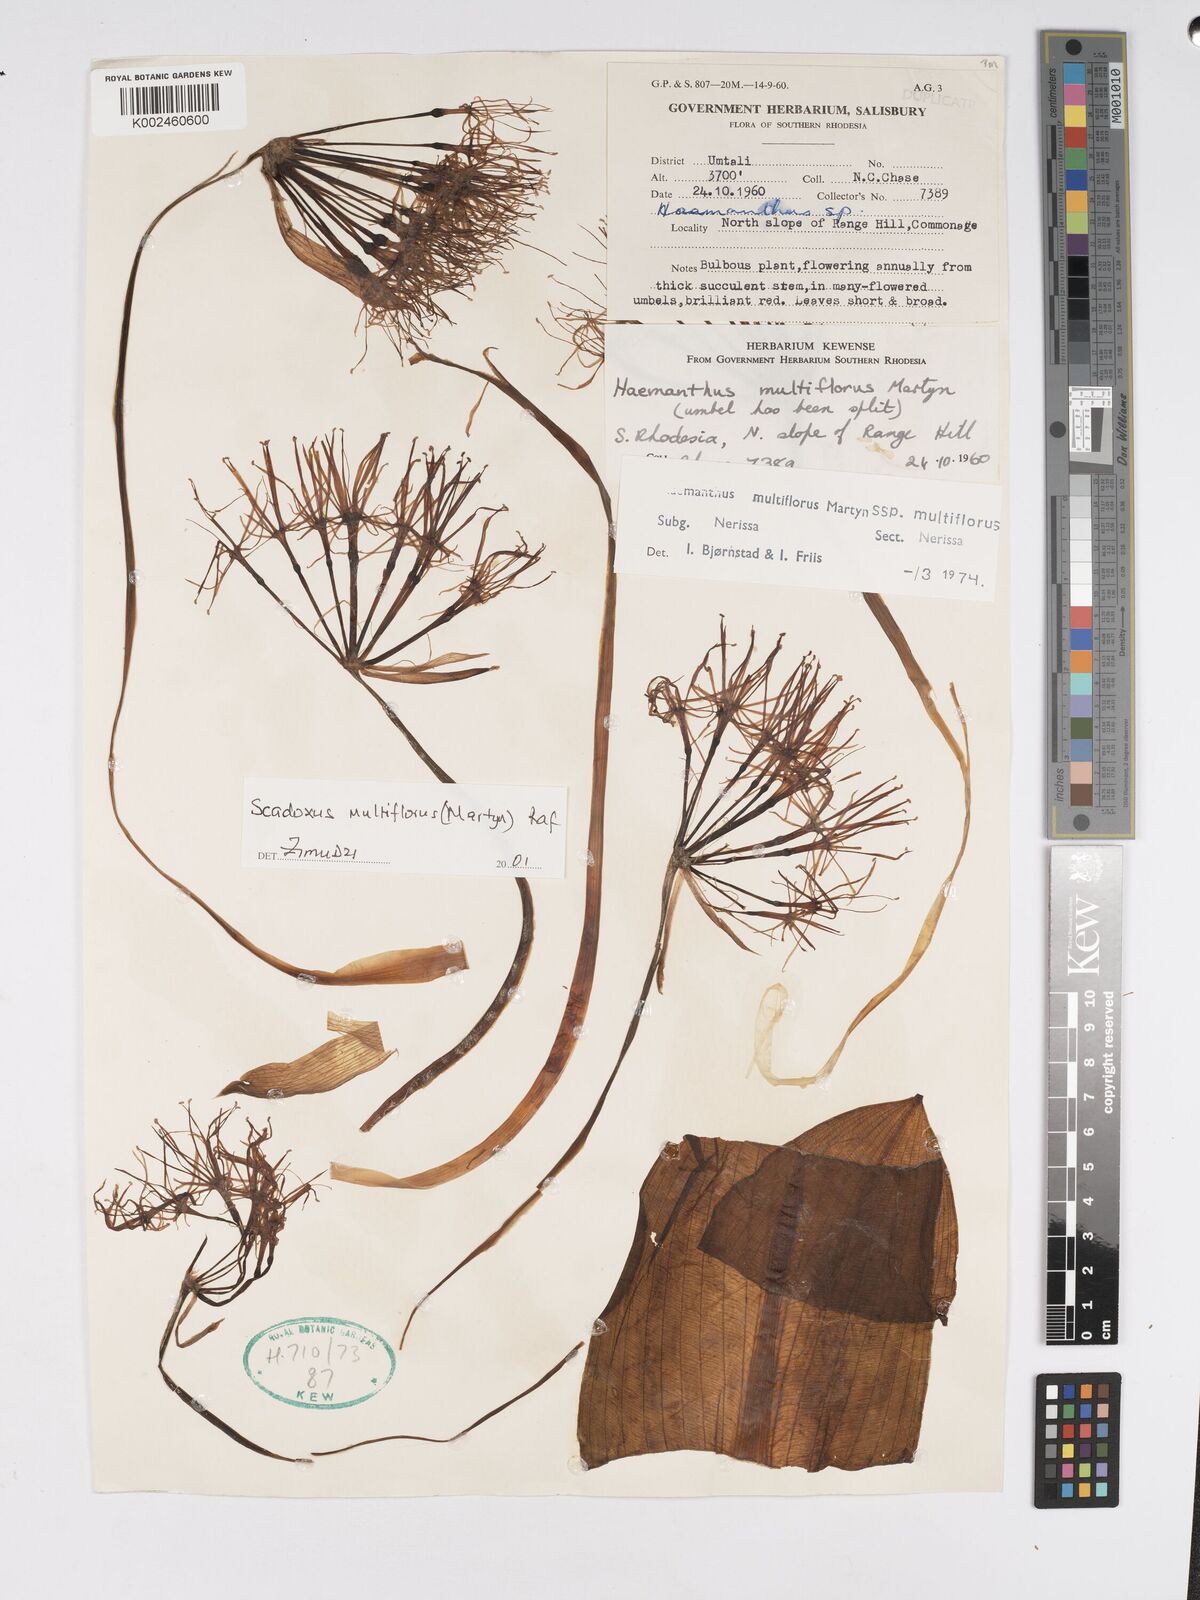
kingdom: Plantae
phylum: Tracheophyta
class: Liliopsida
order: Asparagales
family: Amaryllidaceae
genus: Scadoxus
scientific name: Scadoxus multiflorus
